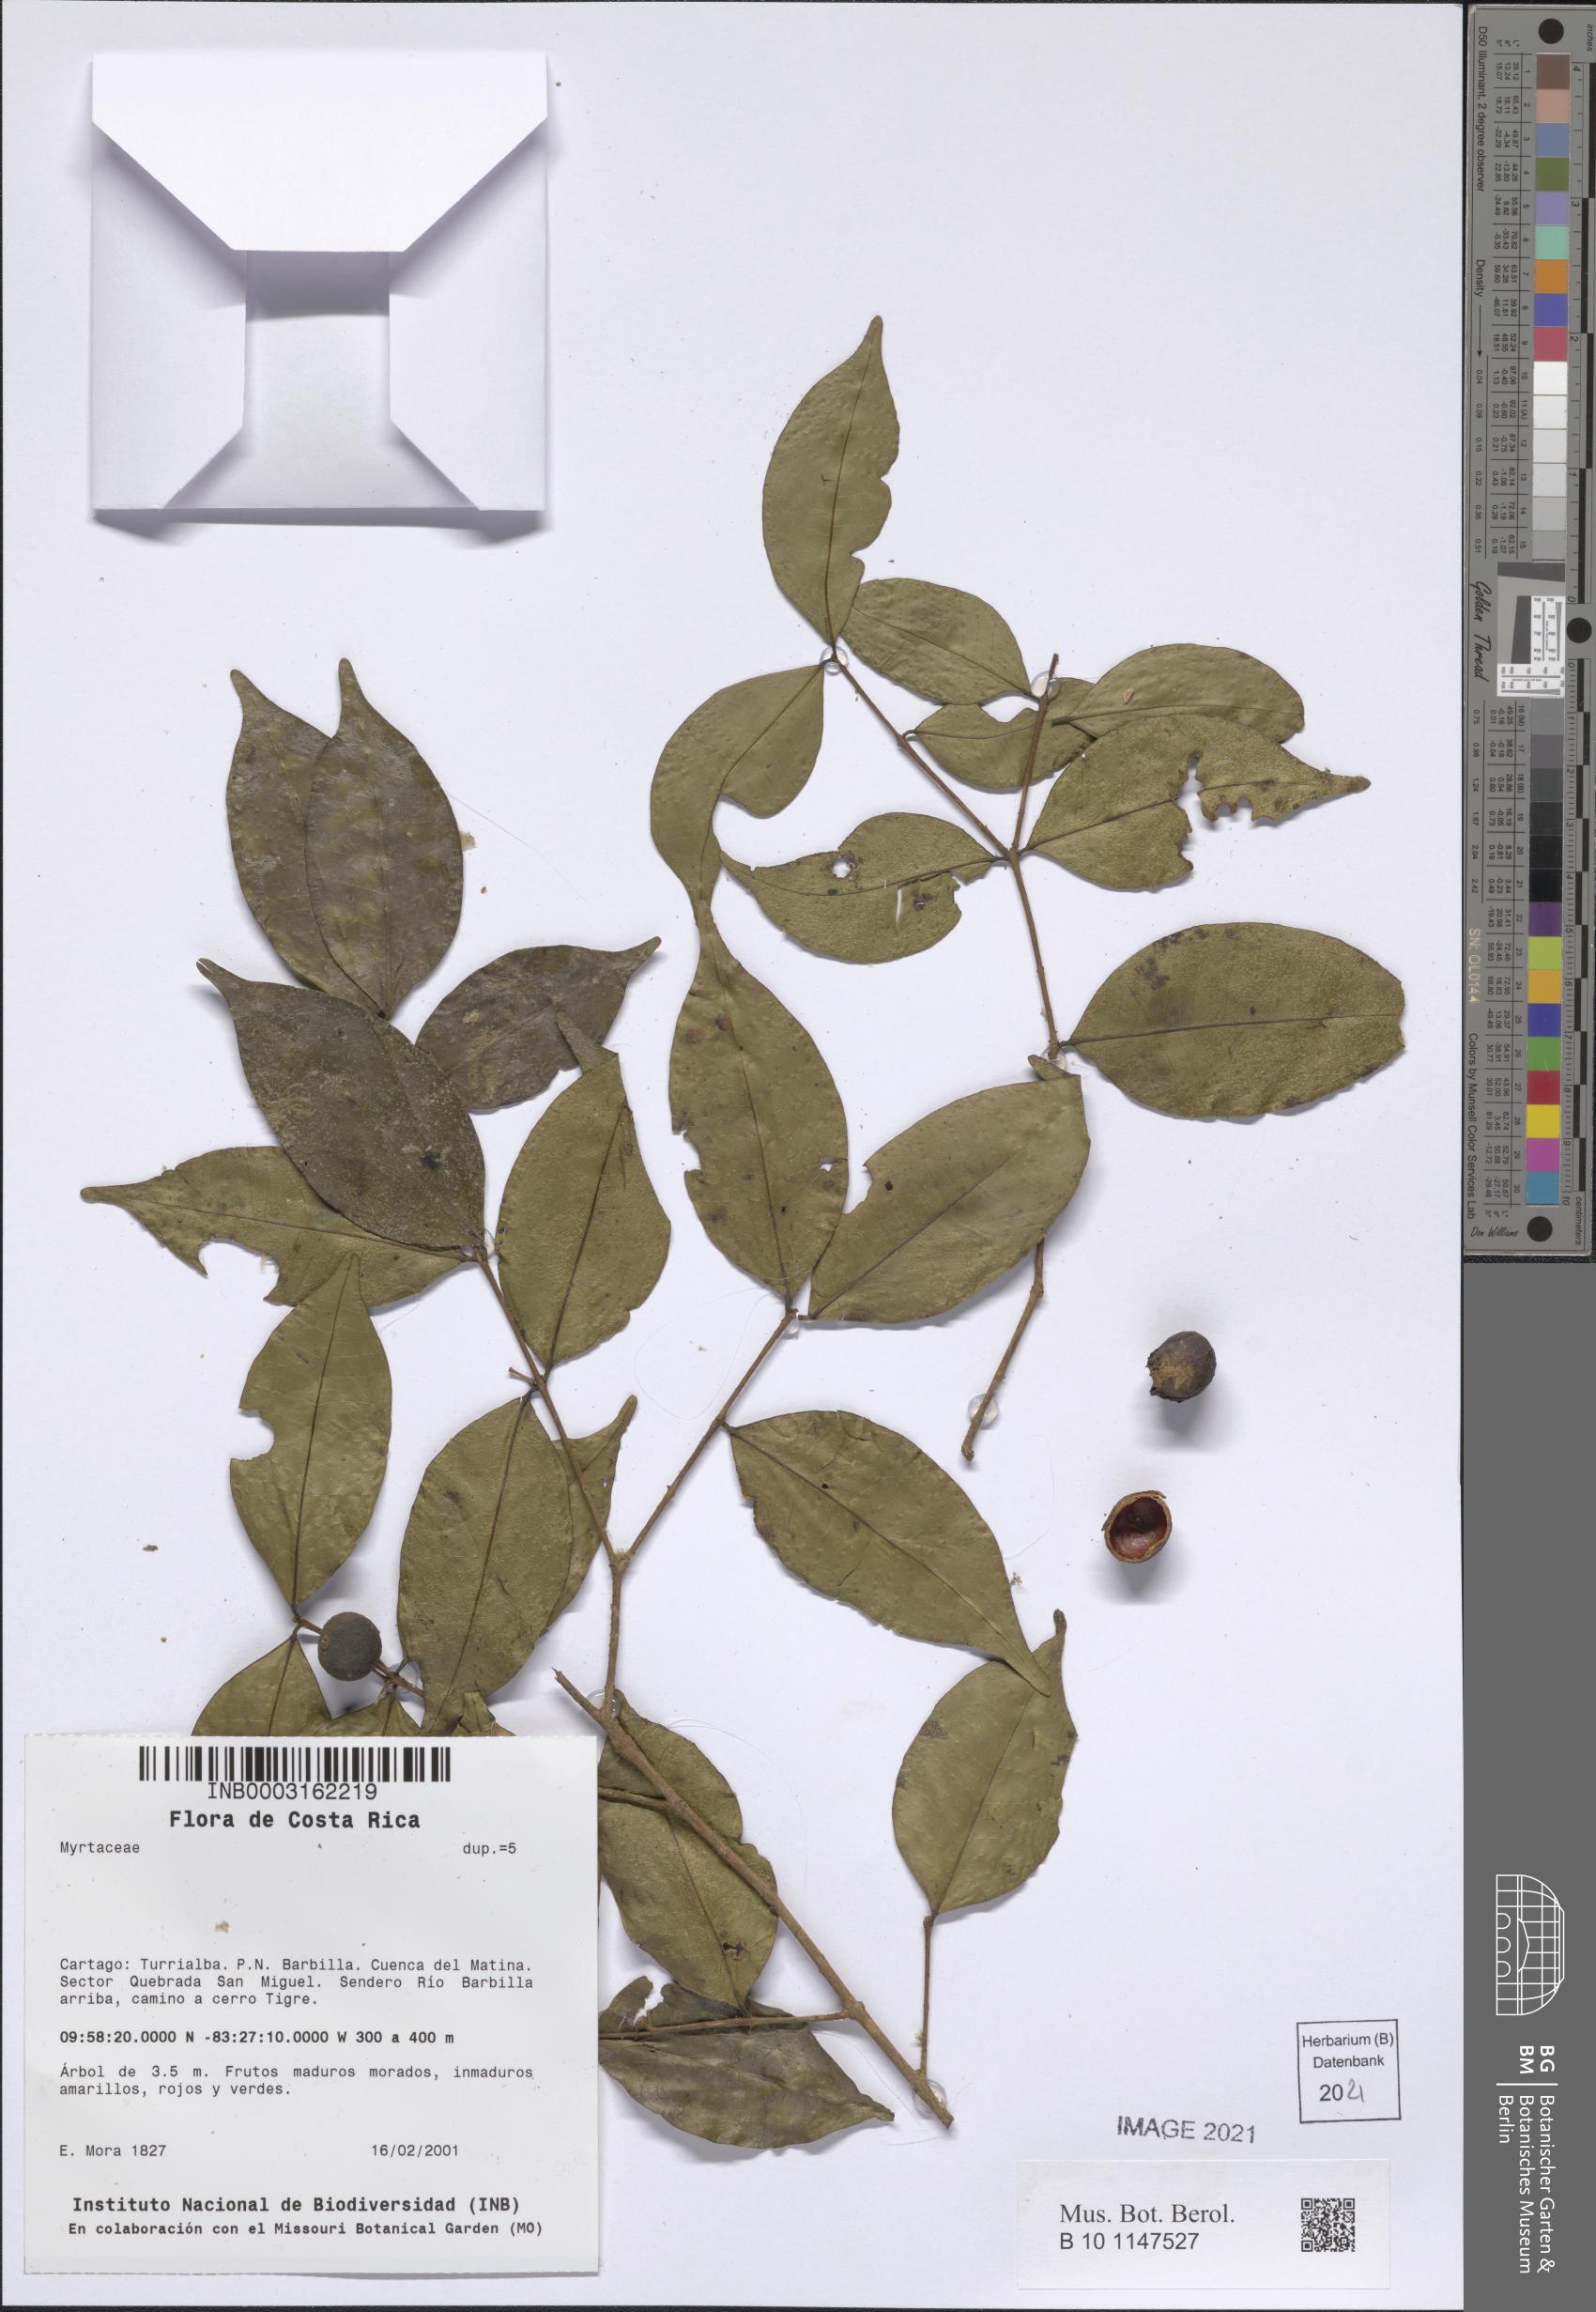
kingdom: Plantae
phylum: Tracheophyta
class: Magnoliopsida
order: Myrtales
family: Myrtaceae
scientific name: Myrtaceae
